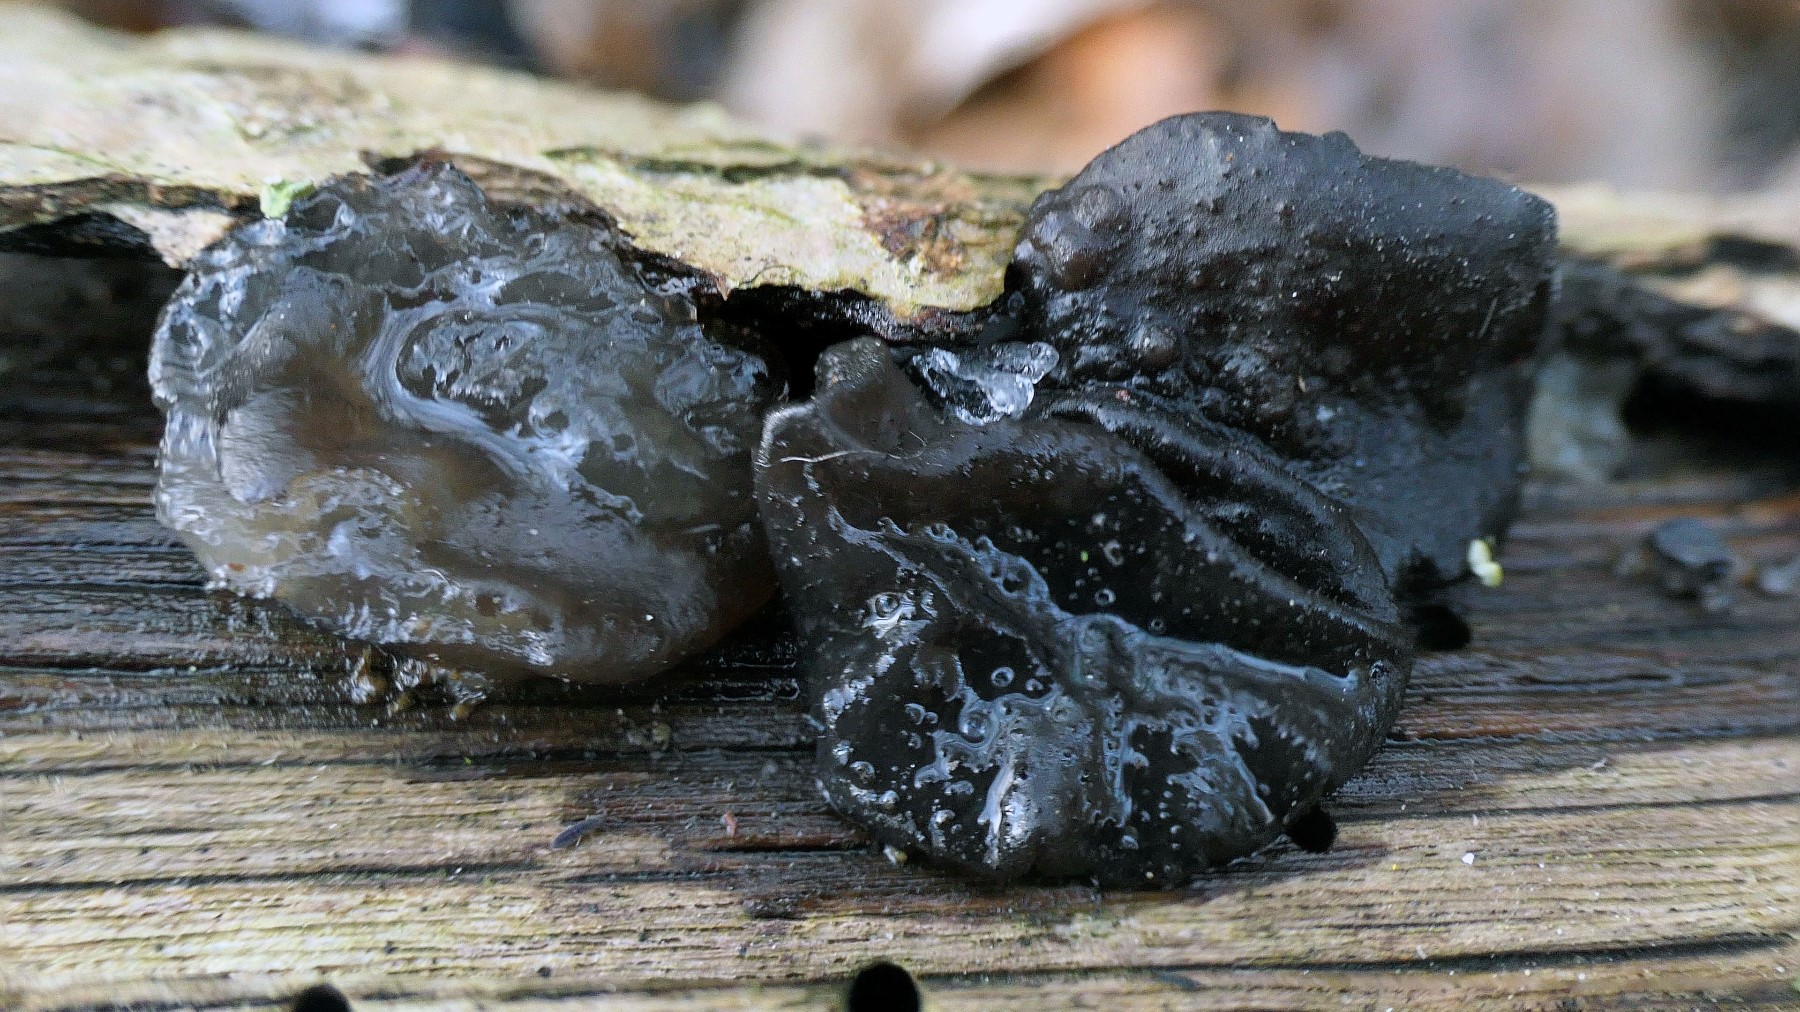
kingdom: Fungi
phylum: Basidiomycota
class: Agaricomycetes
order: Auriculariales
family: Auriculariaceae
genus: Exidia
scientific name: Exidia glandulosa
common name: ege-bævretop
